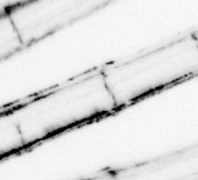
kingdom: Animalia
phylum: Chordata
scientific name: Chordata
